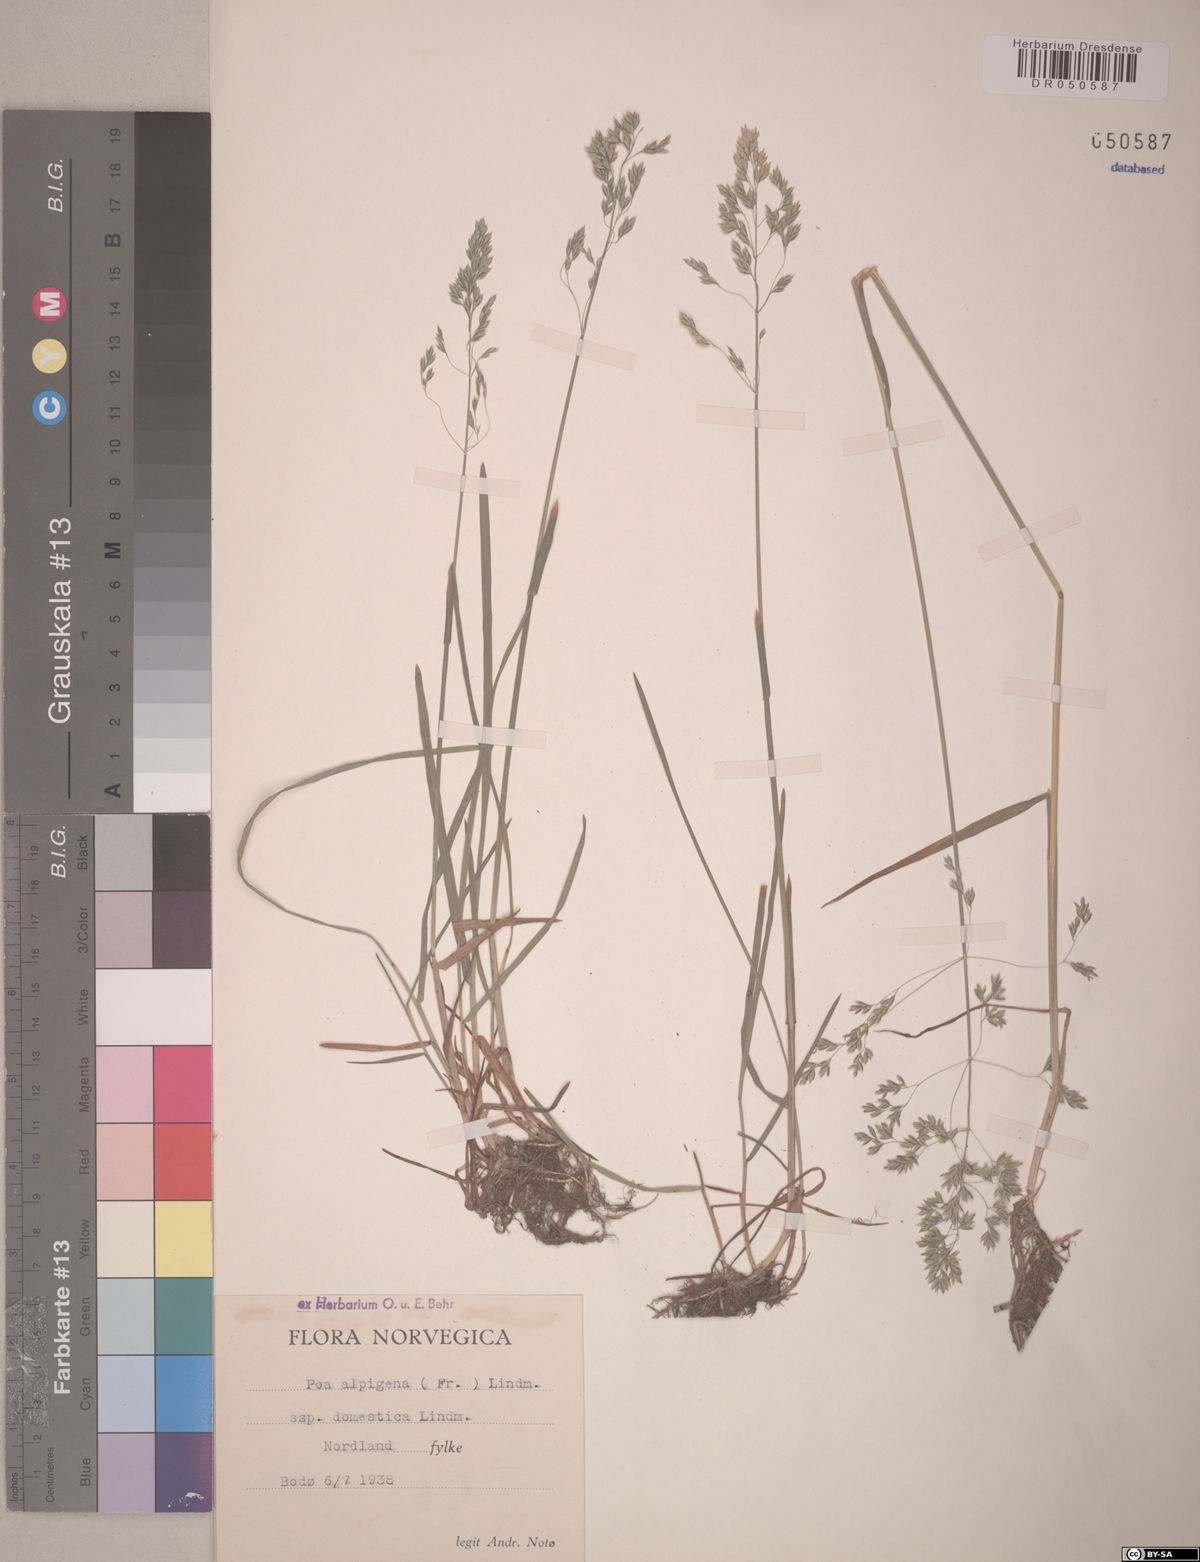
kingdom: Plantae
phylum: Tracheophyta
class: Liliopsida
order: Poales
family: Poaceae
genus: Poa
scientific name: Poa alpigena
